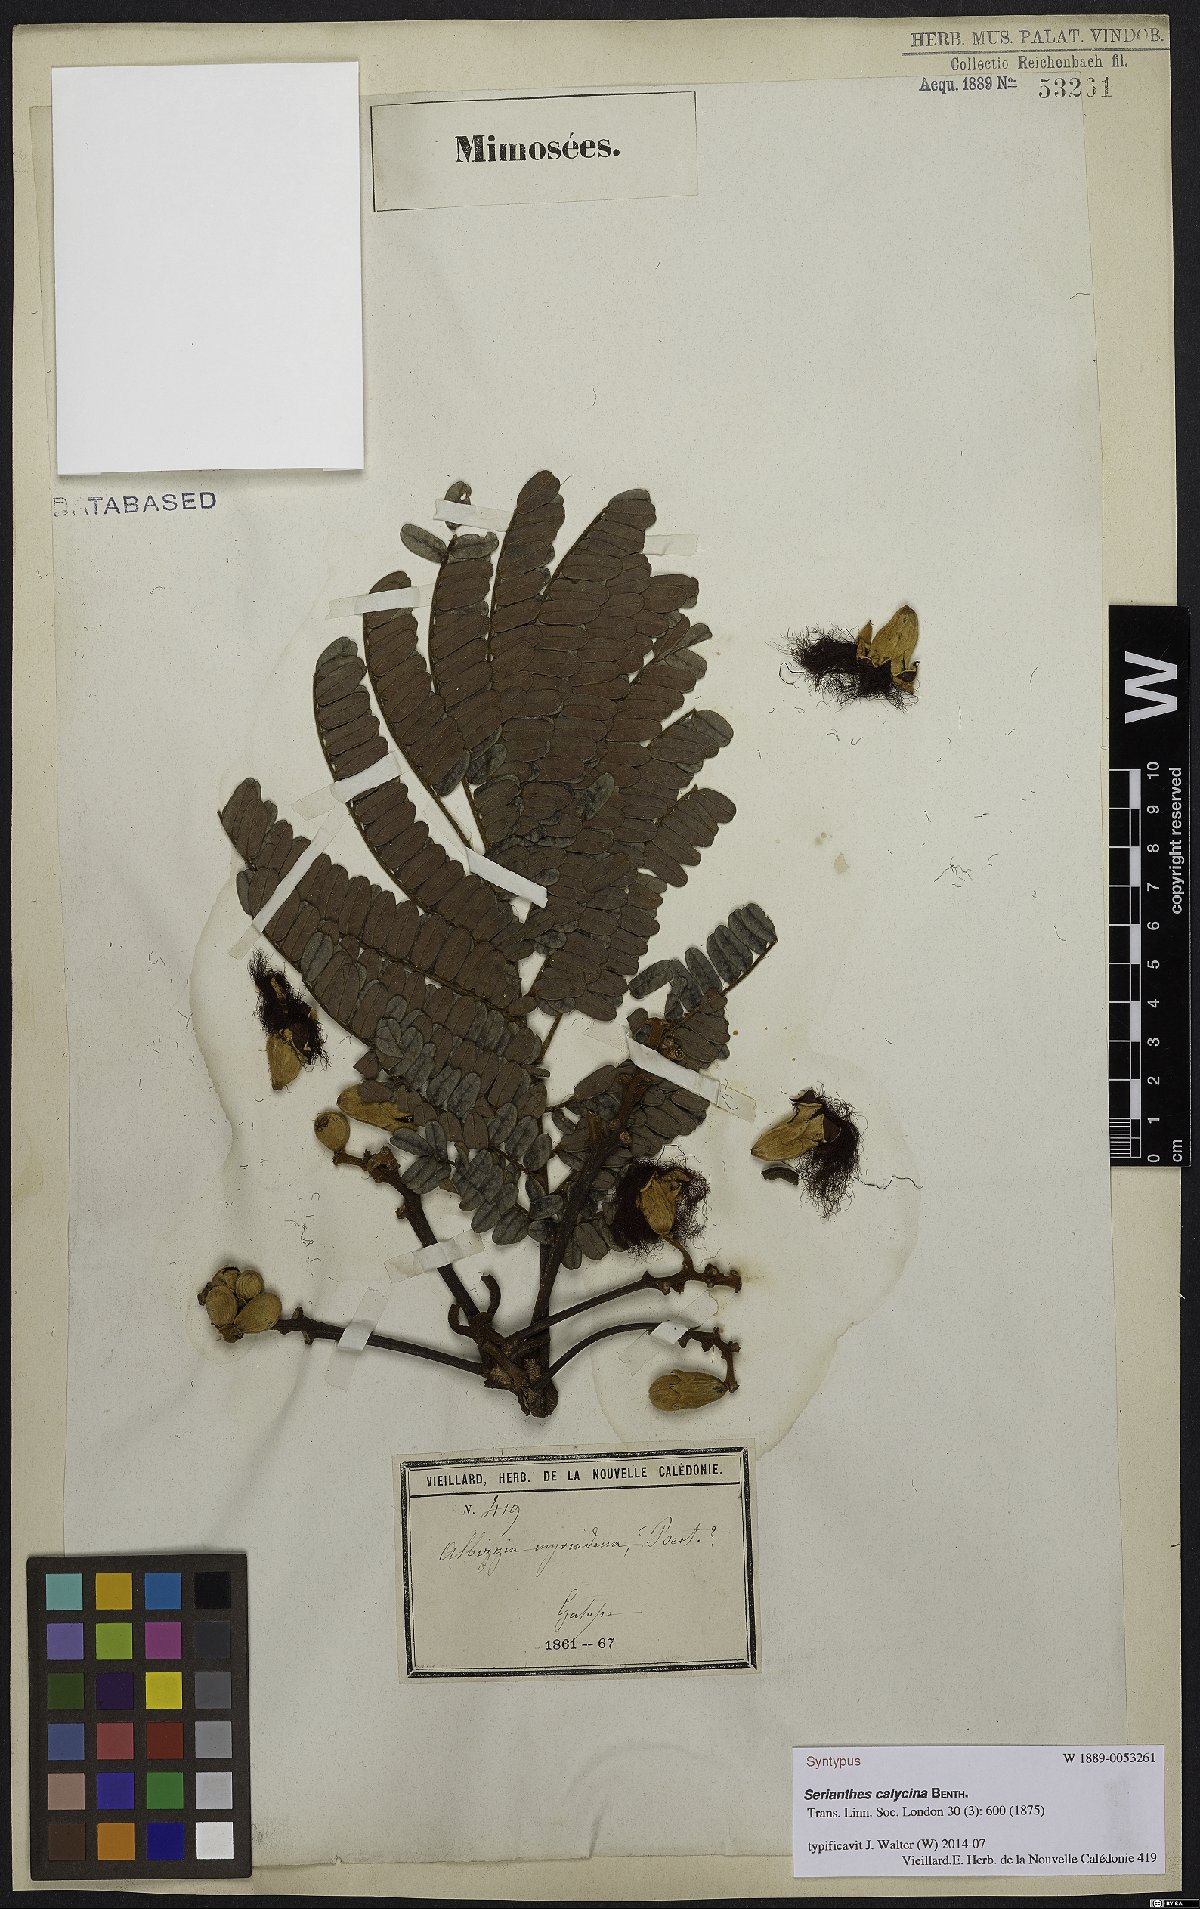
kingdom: Plantae
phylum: Tracheophyta
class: Magnoliopsida
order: Fabales
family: Fabaceae
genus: Serianthes
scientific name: Serianthes calycina
